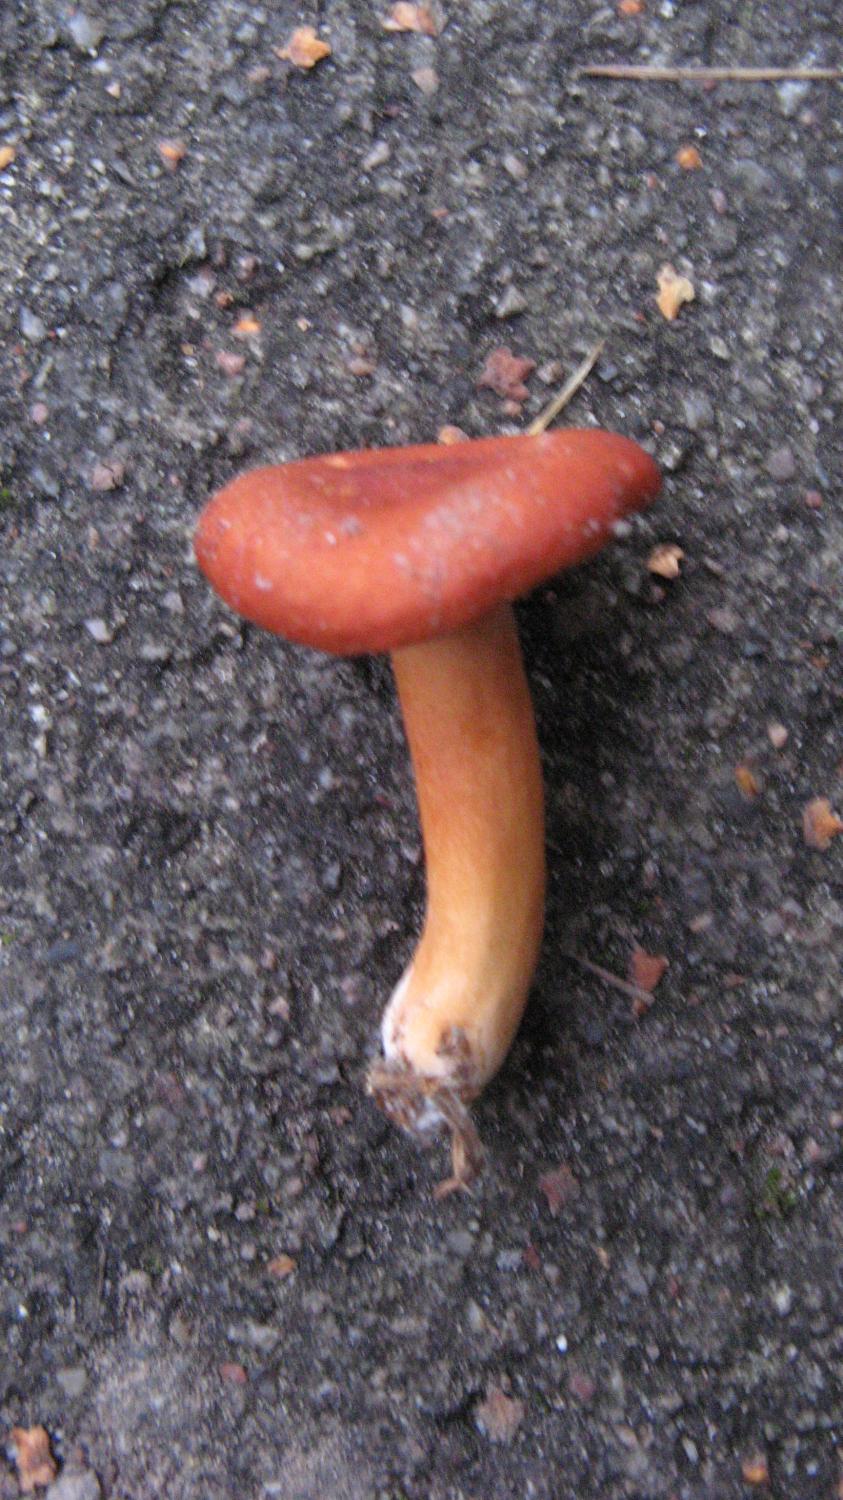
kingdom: Fungi
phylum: Basidiomycota
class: Agaricomycetes
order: Russulales
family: Russulaceae
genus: Lactarius
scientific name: Lactarius tabidus
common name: rynket mælkehat
